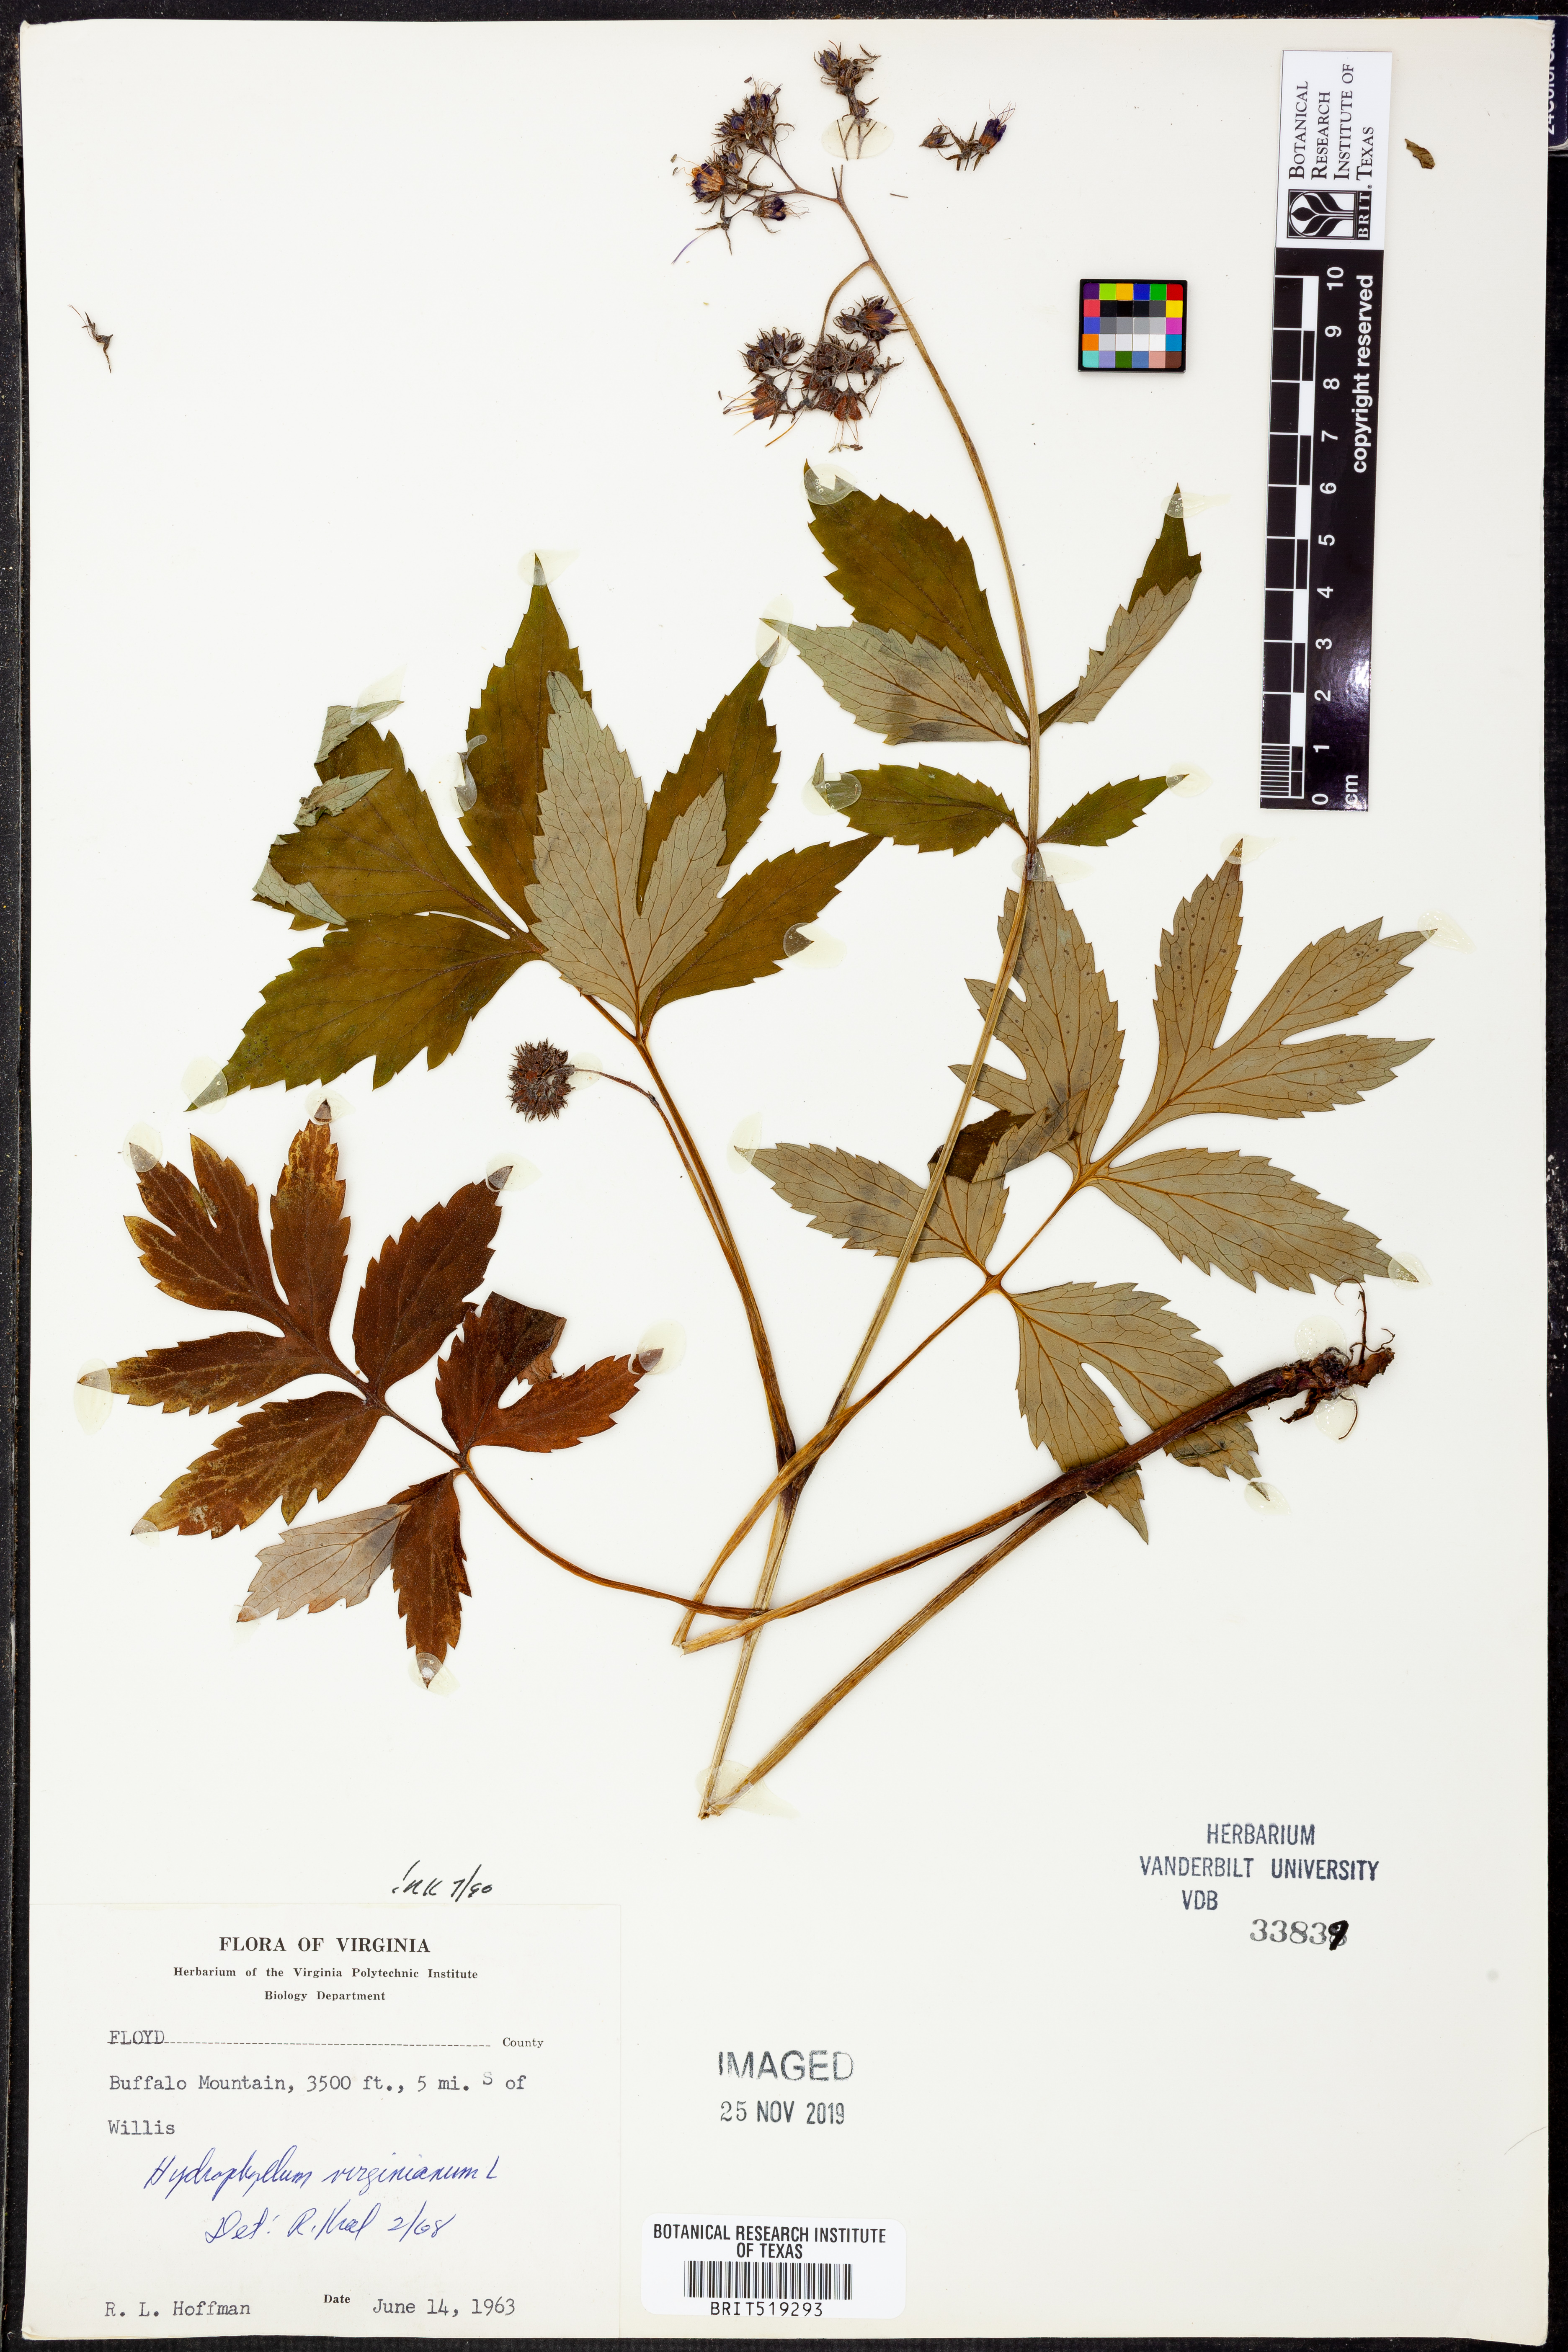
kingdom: Plantae
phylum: Tracheophyta
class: Magnoliopsida
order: Boraginales
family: Hydrophyllaceae
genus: Hydrophyllum
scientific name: Hydrophyllum virginianum
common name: Virginia waterleaf
